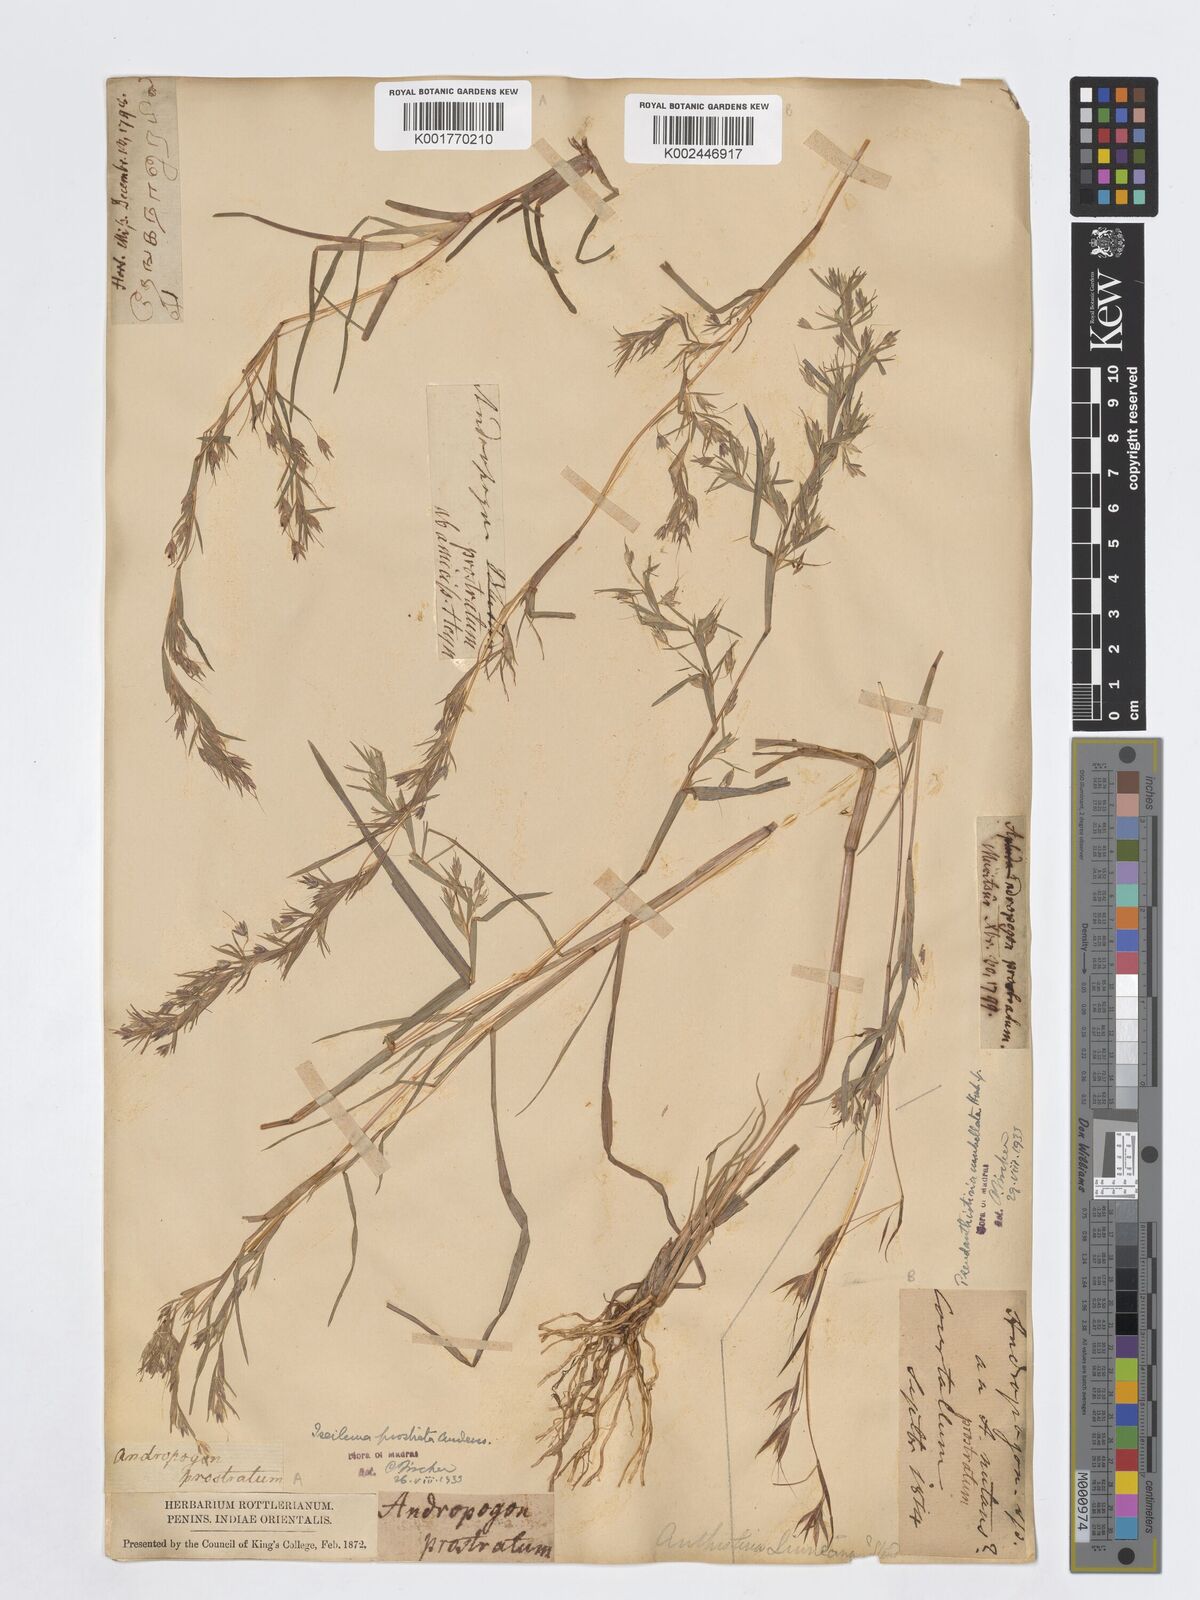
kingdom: Plantae
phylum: Tracheophyta
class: Liliopsida
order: Poales
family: Poaceae
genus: Pseudanthistiria
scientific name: Pseudanthistiria umbellata
